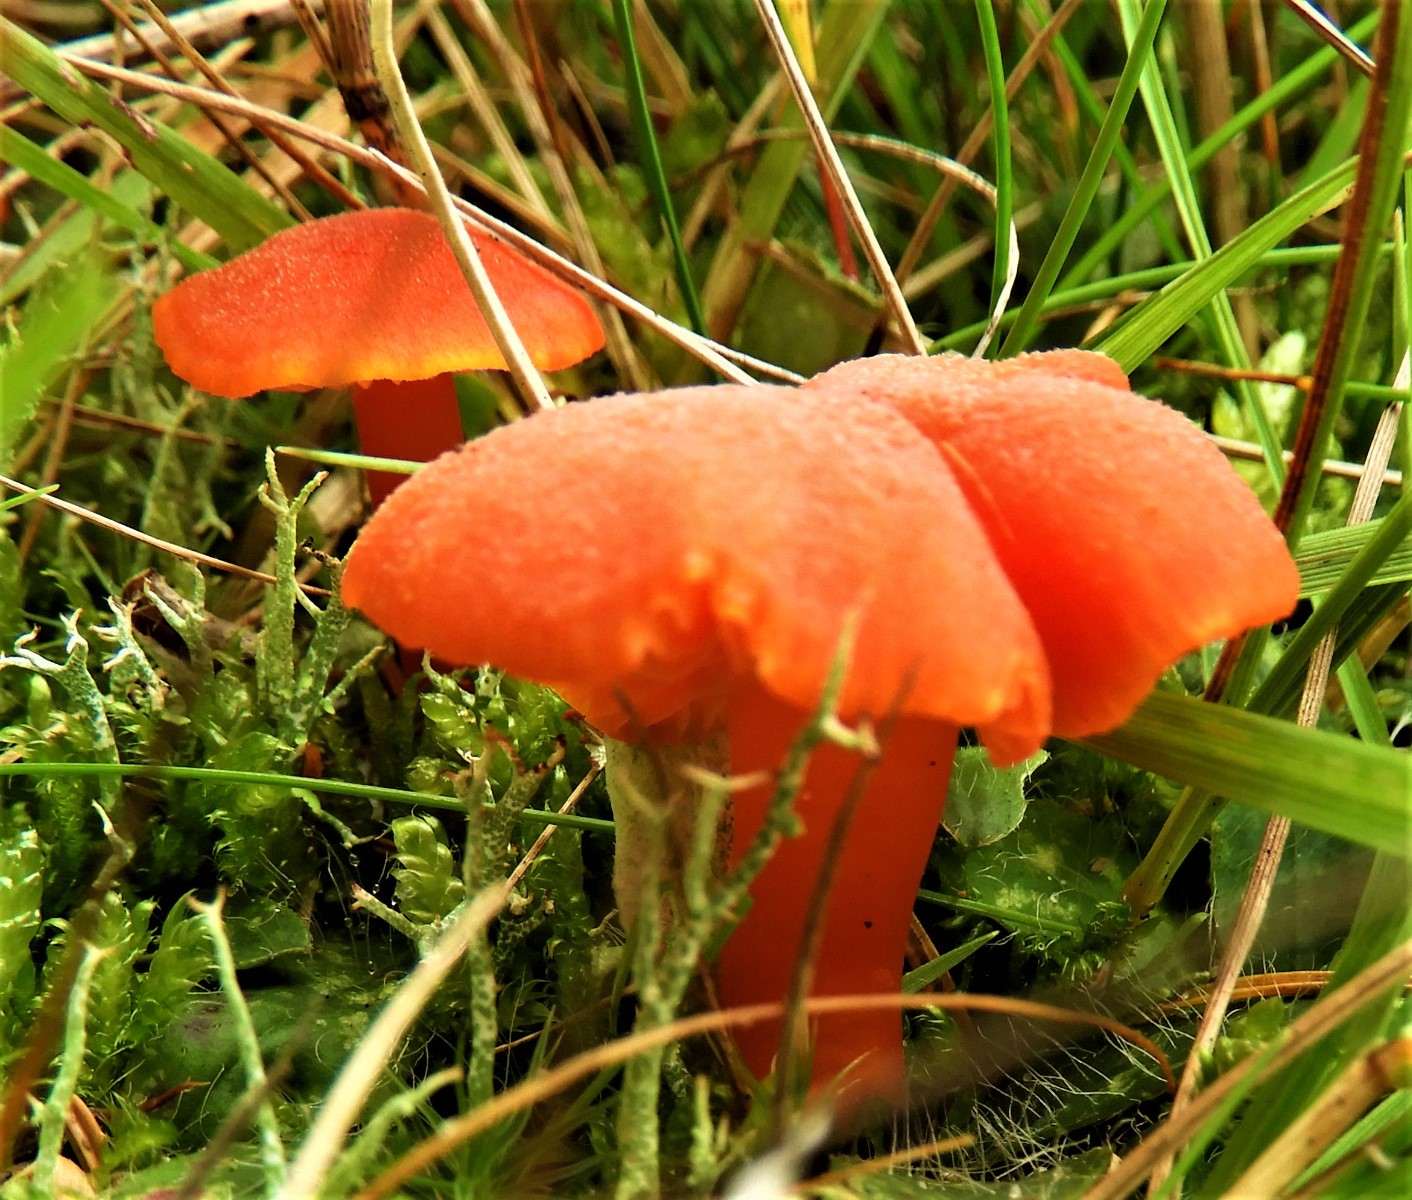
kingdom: Fungi
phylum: Basidiomycota
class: Agaricomycetes
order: Agaricales
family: Hygrophoraceae
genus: Hygrocybe
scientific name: Hygrocybe miniata
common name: mønje-vokshat
